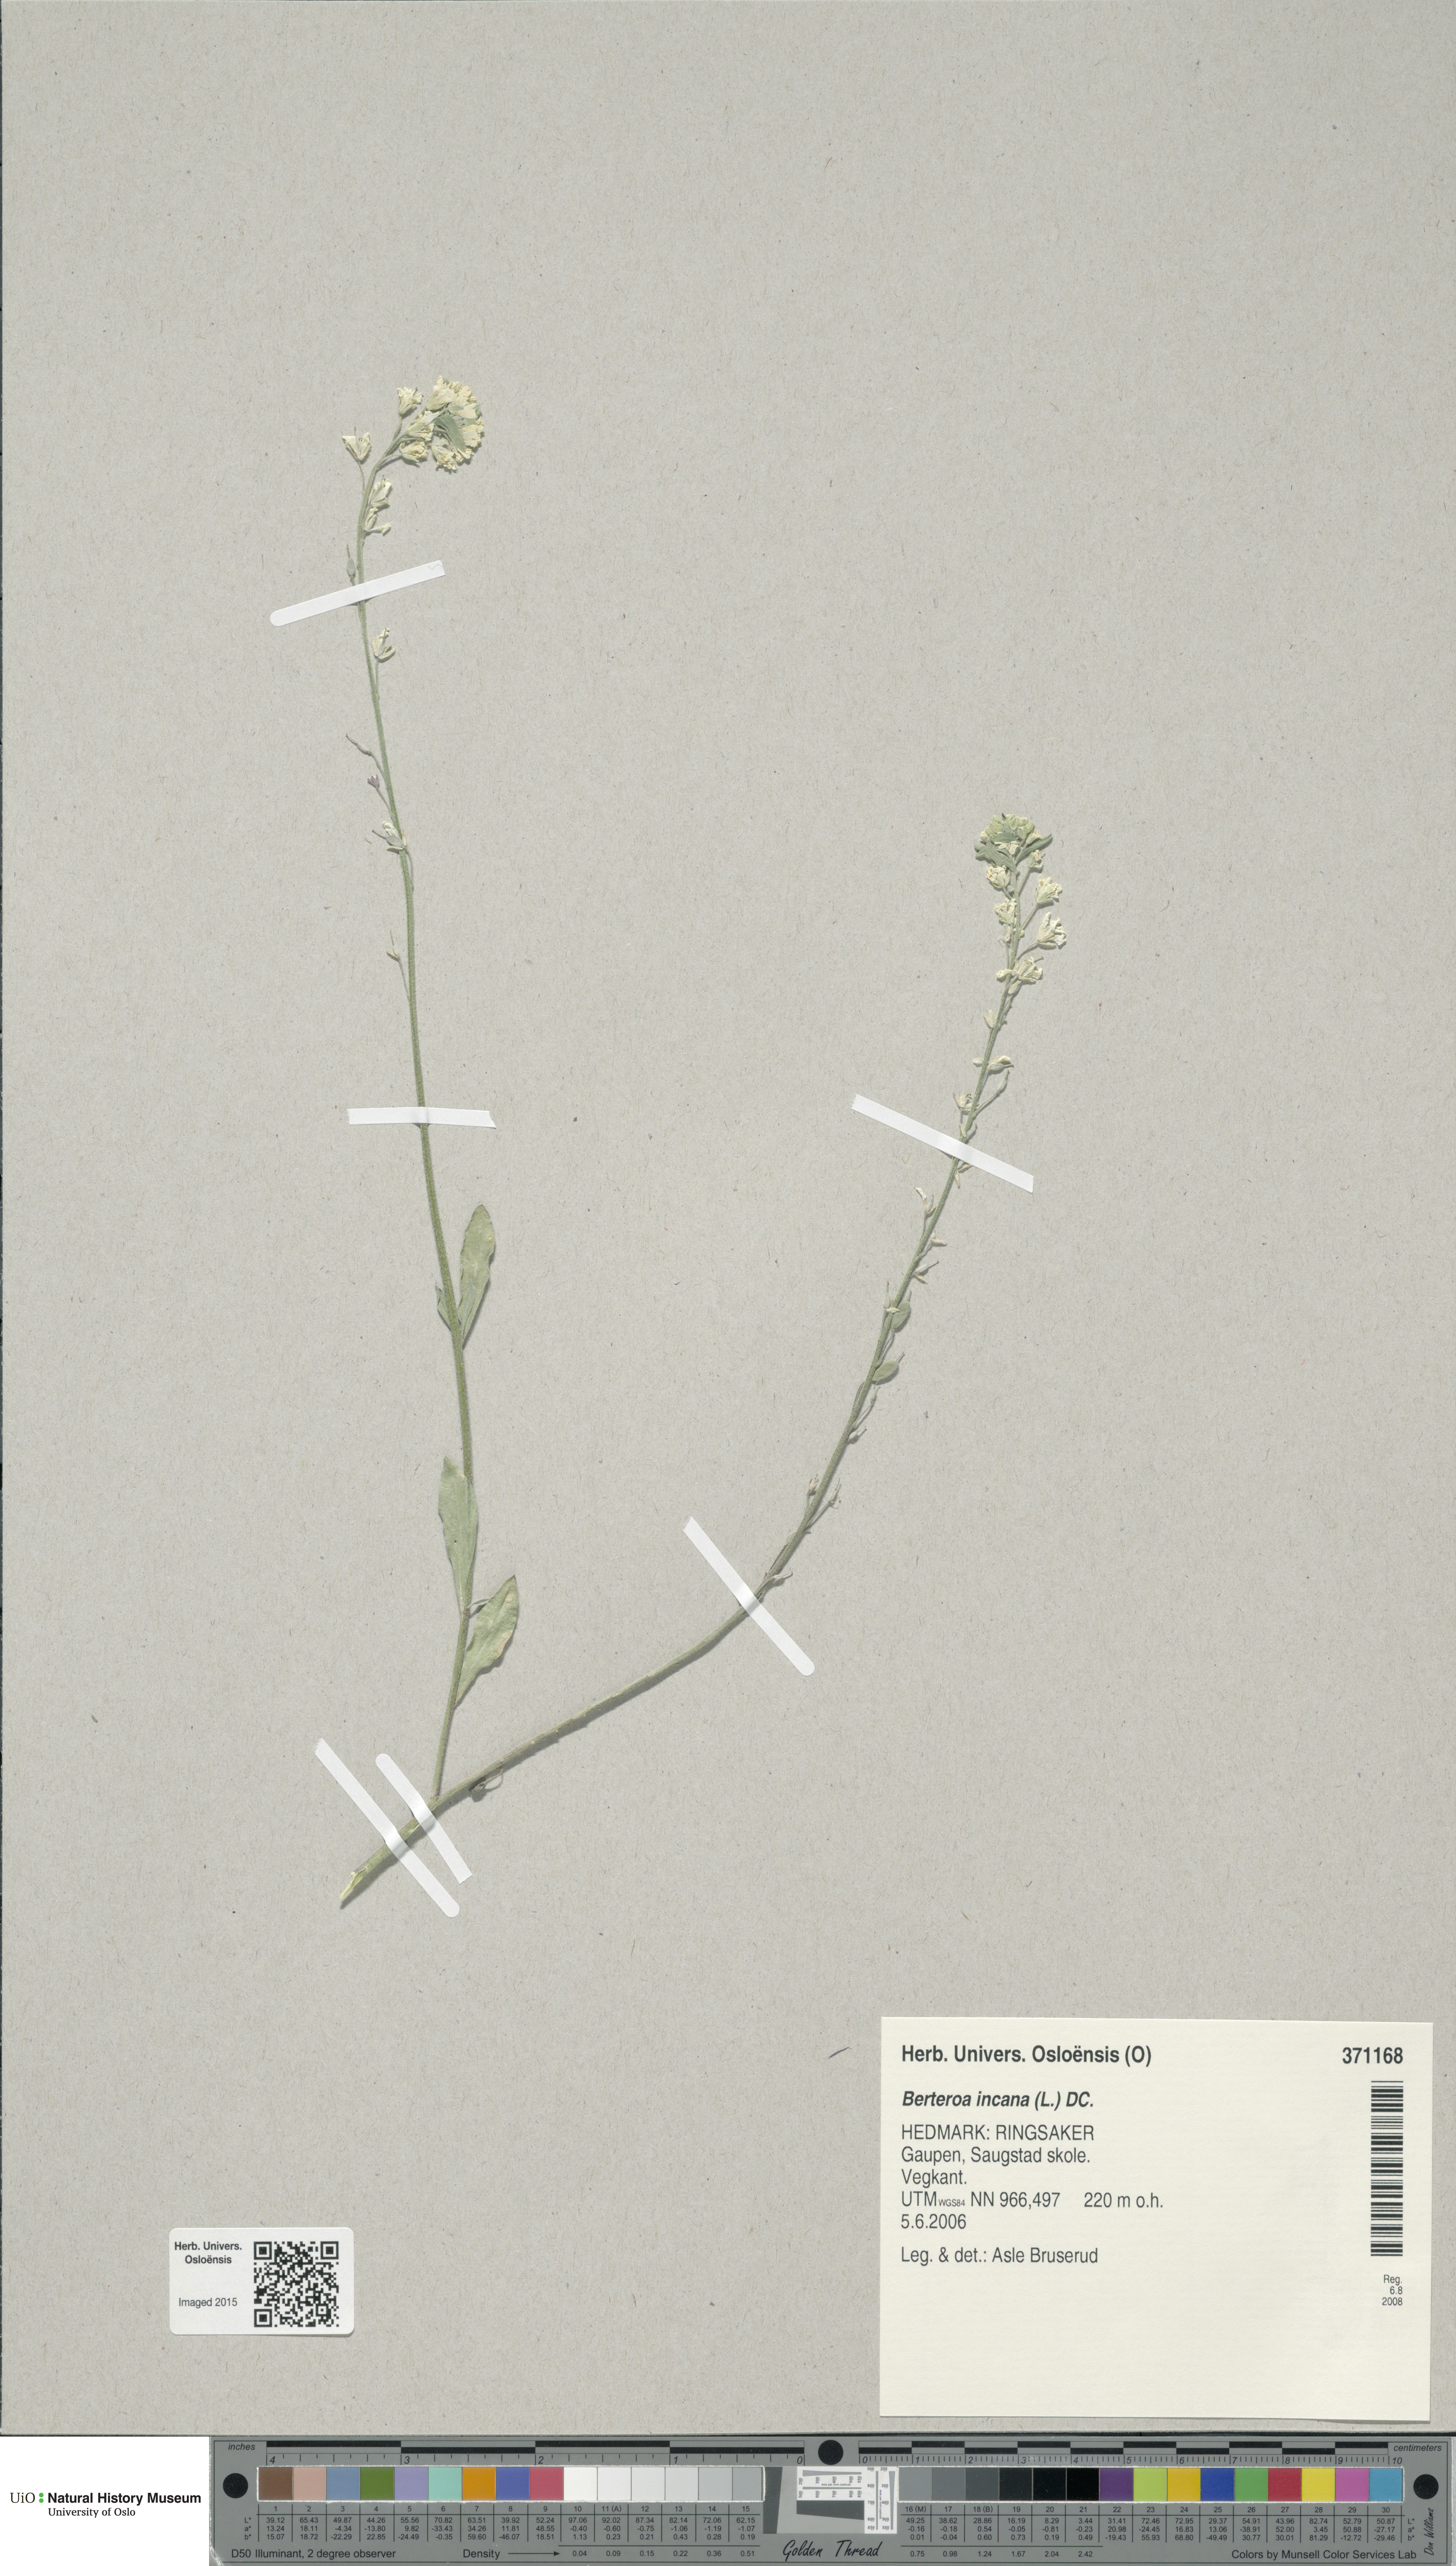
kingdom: Plantae
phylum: Tracheophyta
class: Magnoliopsida
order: Brassicales
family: Brassicaceae
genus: Berteroa
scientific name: Berteroa incana
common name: Hoary alison
